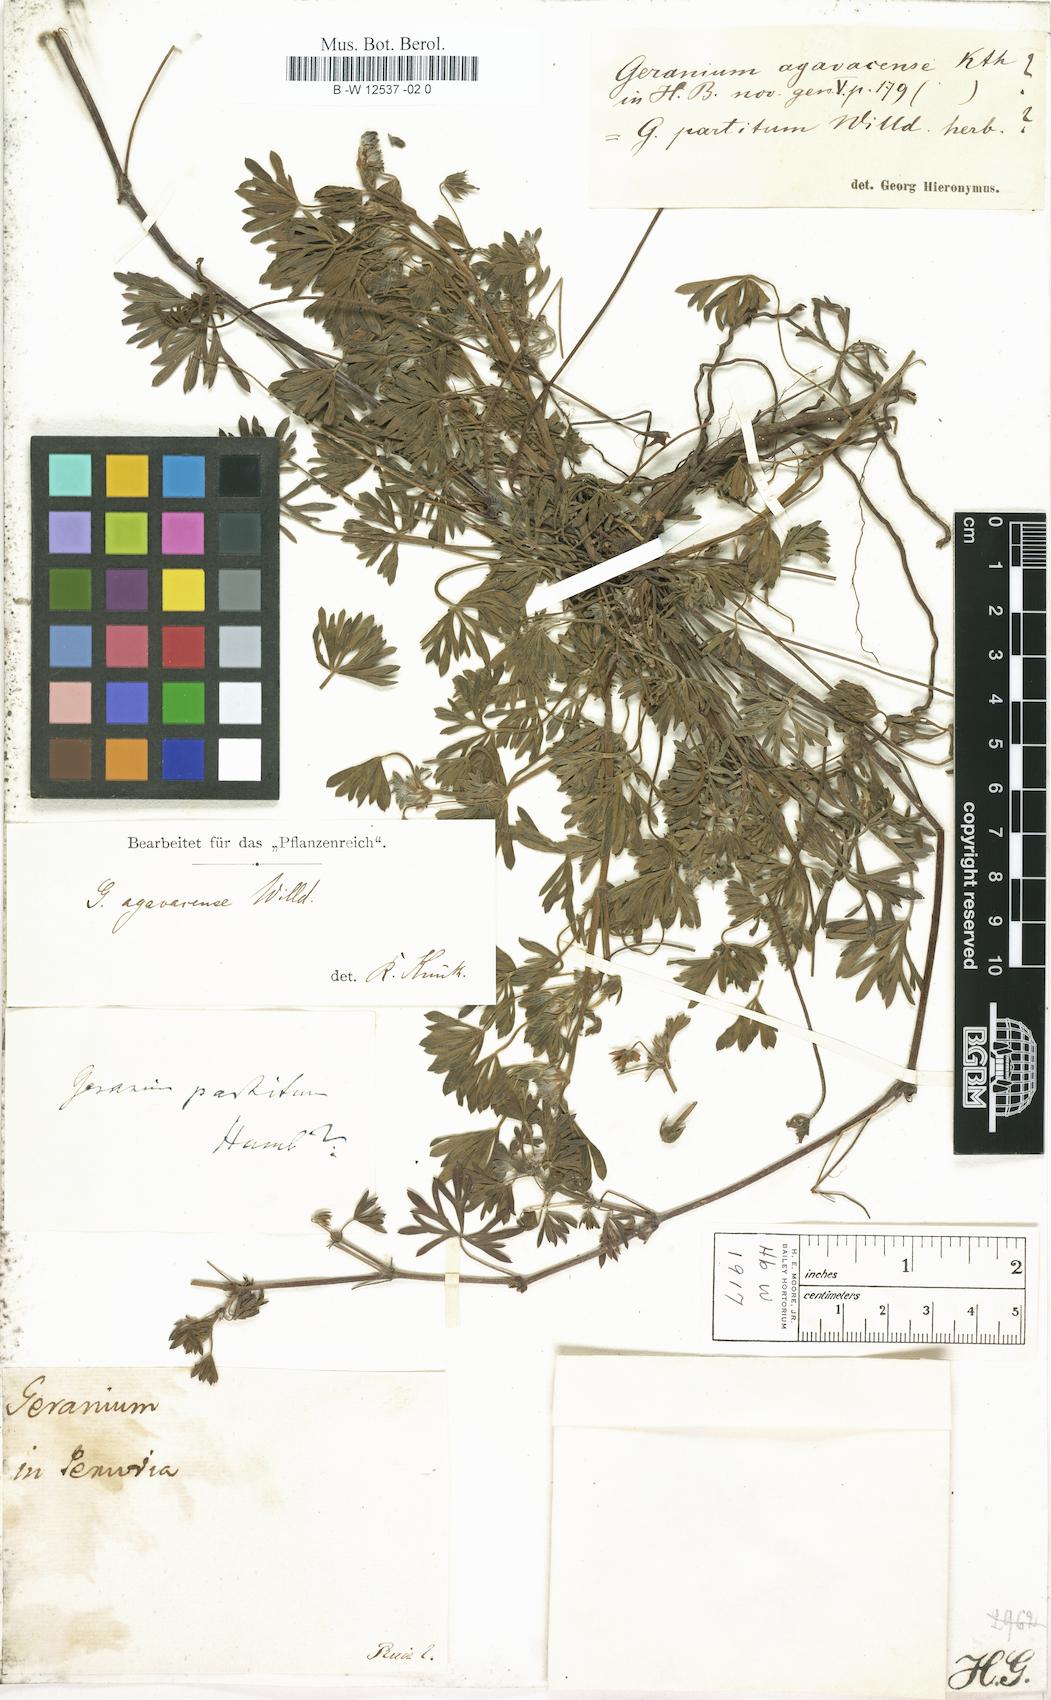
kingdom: Plantae
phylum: Tracheophyta
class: Magnoliopsida
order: Geraniales
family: Geraniaceae
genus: Geranium
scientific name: Geranium ayavacense
